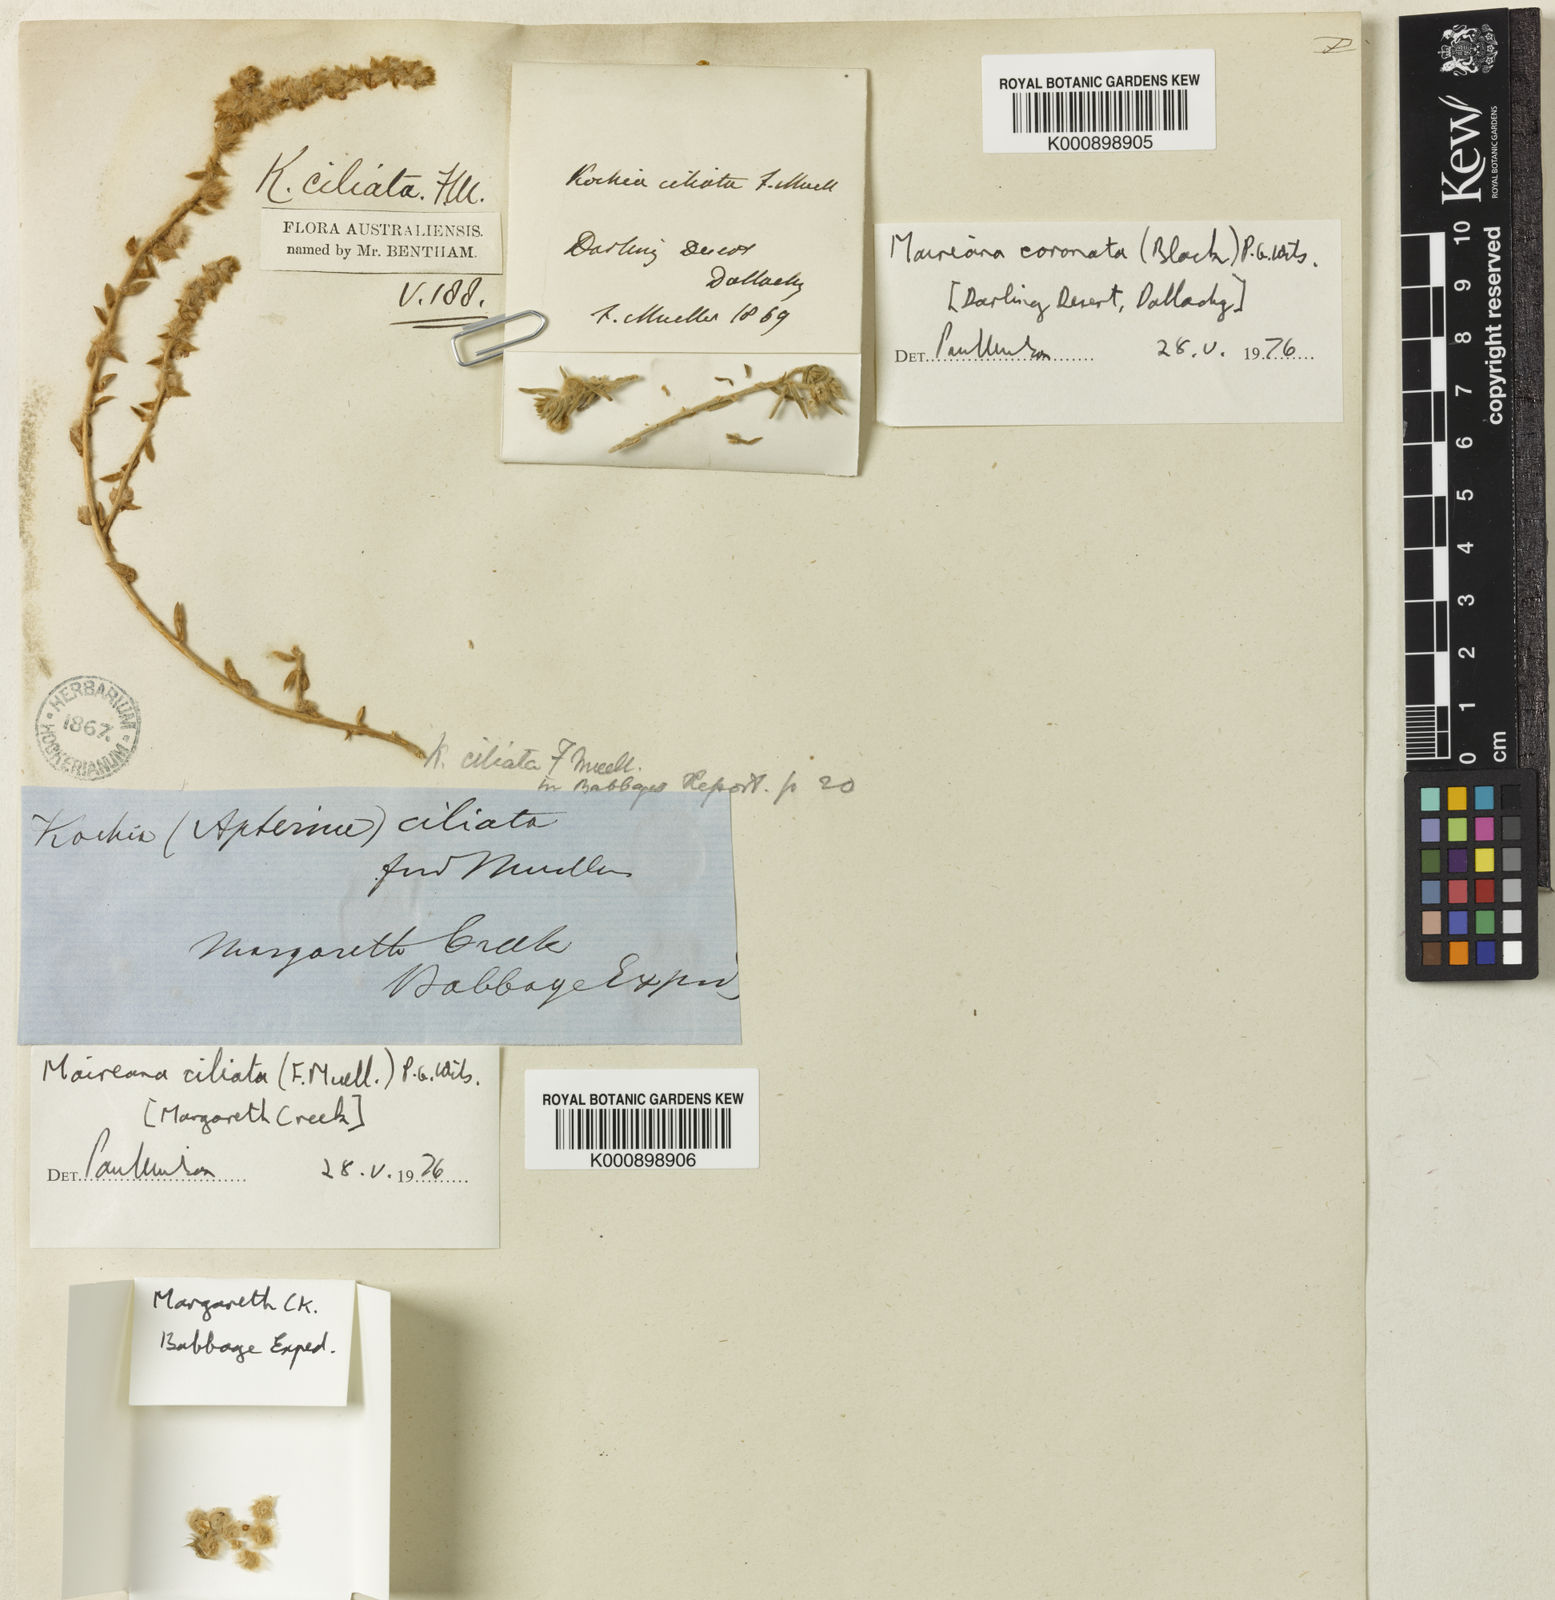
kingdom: Plantae
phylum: Tracheophyta
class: Magnoliopsida
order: Caryophyllales
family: Amaranthaceae
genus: Maireana
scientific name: Maireana ciliata
